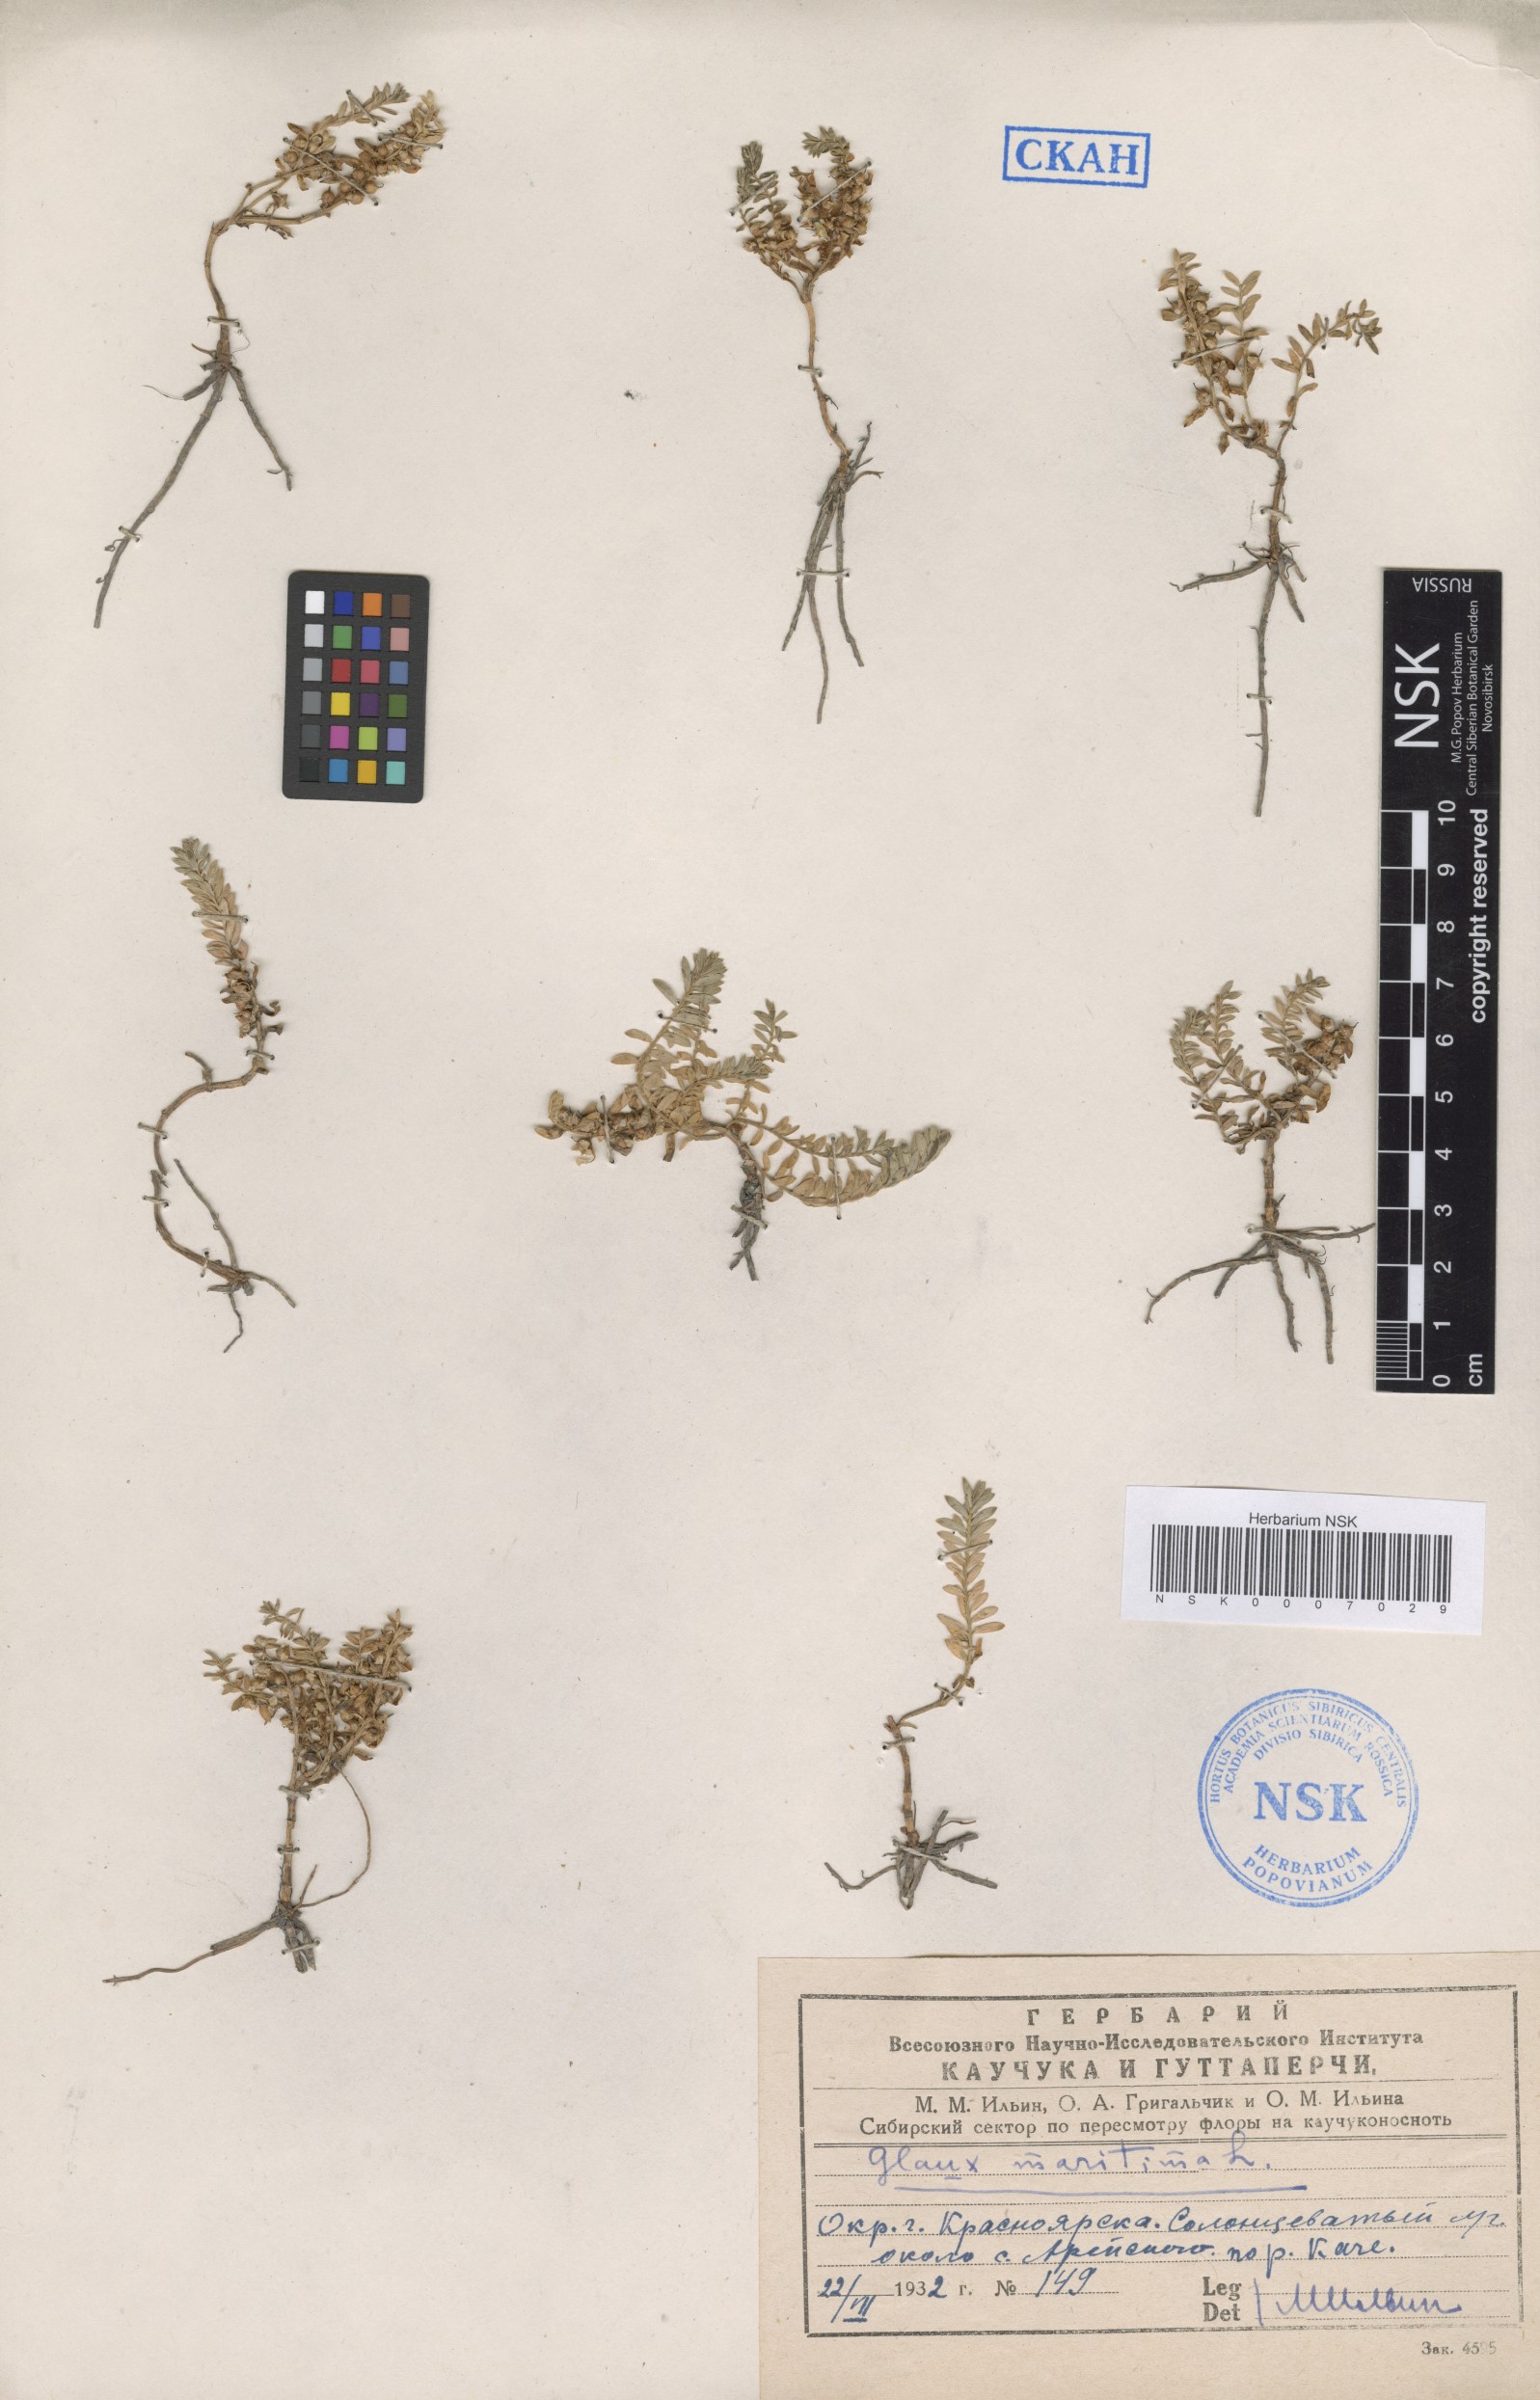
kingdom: Plantae
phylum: Tracheophyta
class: Magnoliopsida
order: Ericales
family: Primulaceae
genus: Lysimachia
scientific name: Lysimachia maritima
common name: Sea milkwort
